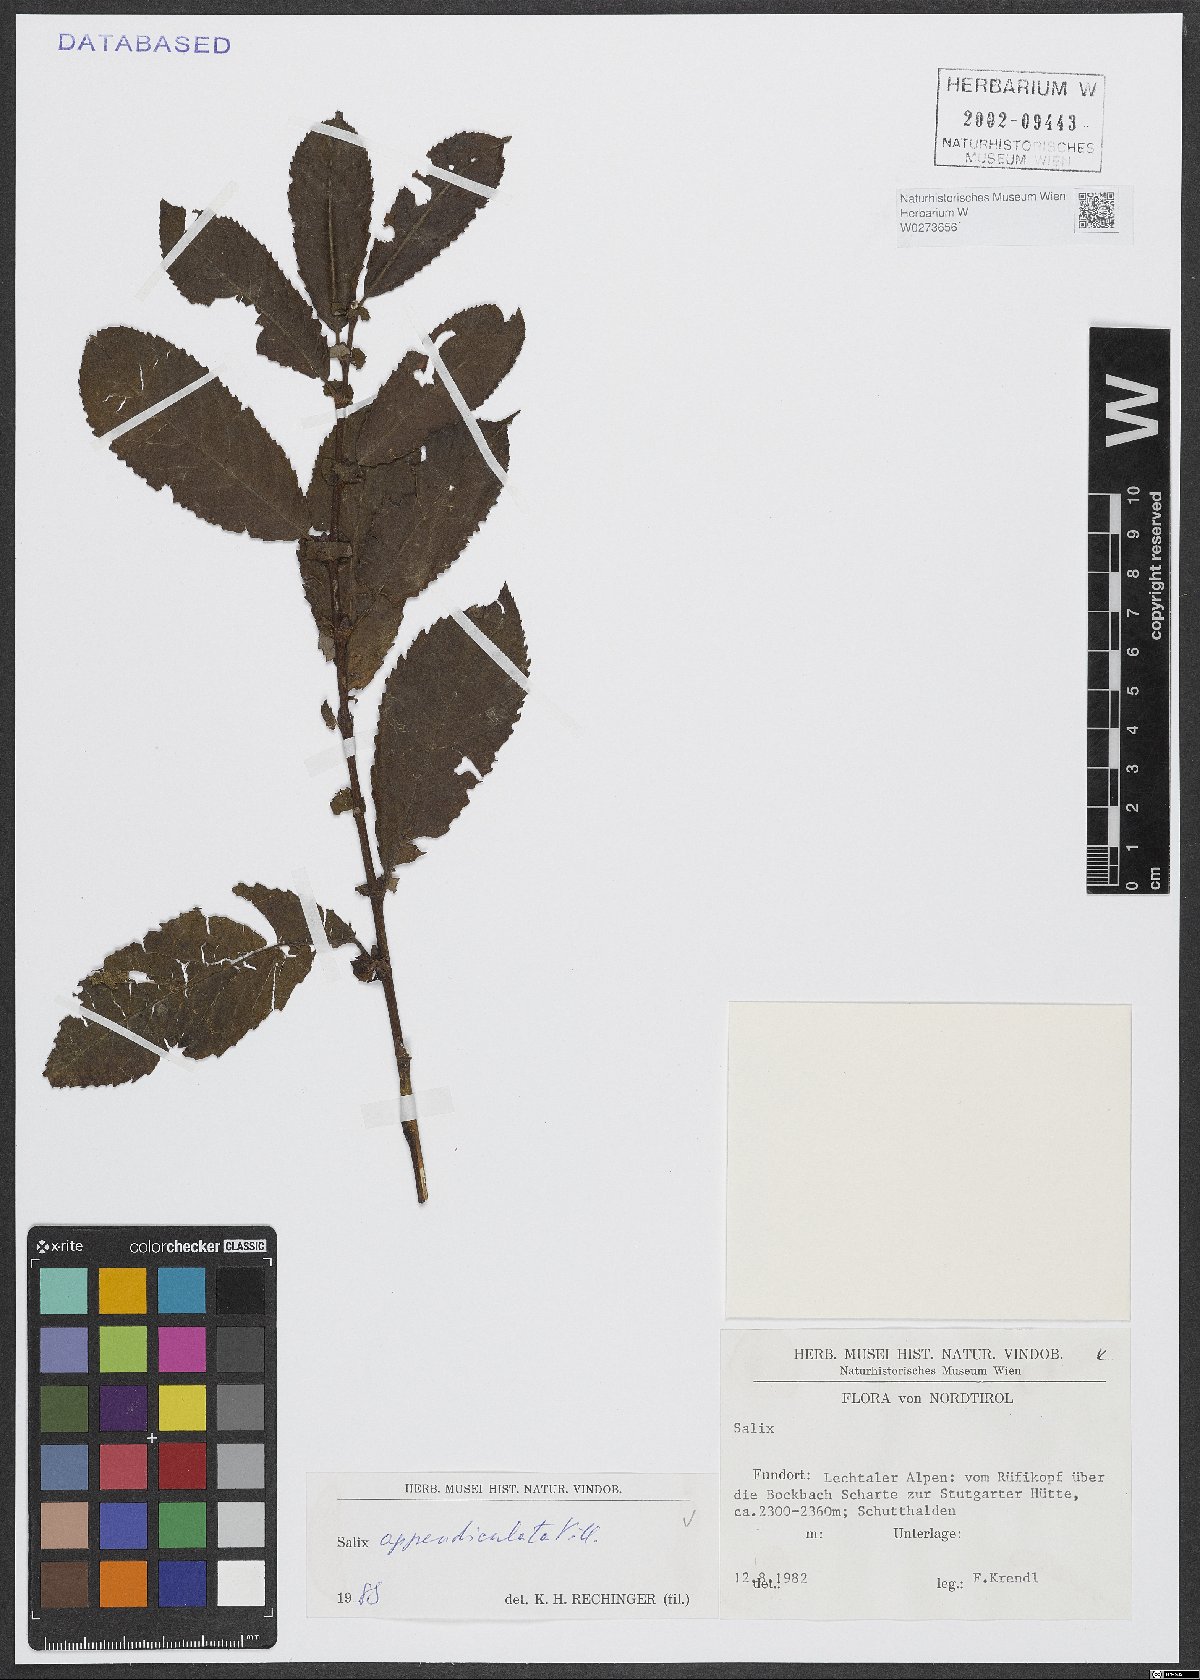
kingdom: Plantae
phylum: Tracheophyta
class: Magnoliopsida
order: Malpighiales
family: Salicaceae
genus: Salix
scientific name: Salix appendiculata
